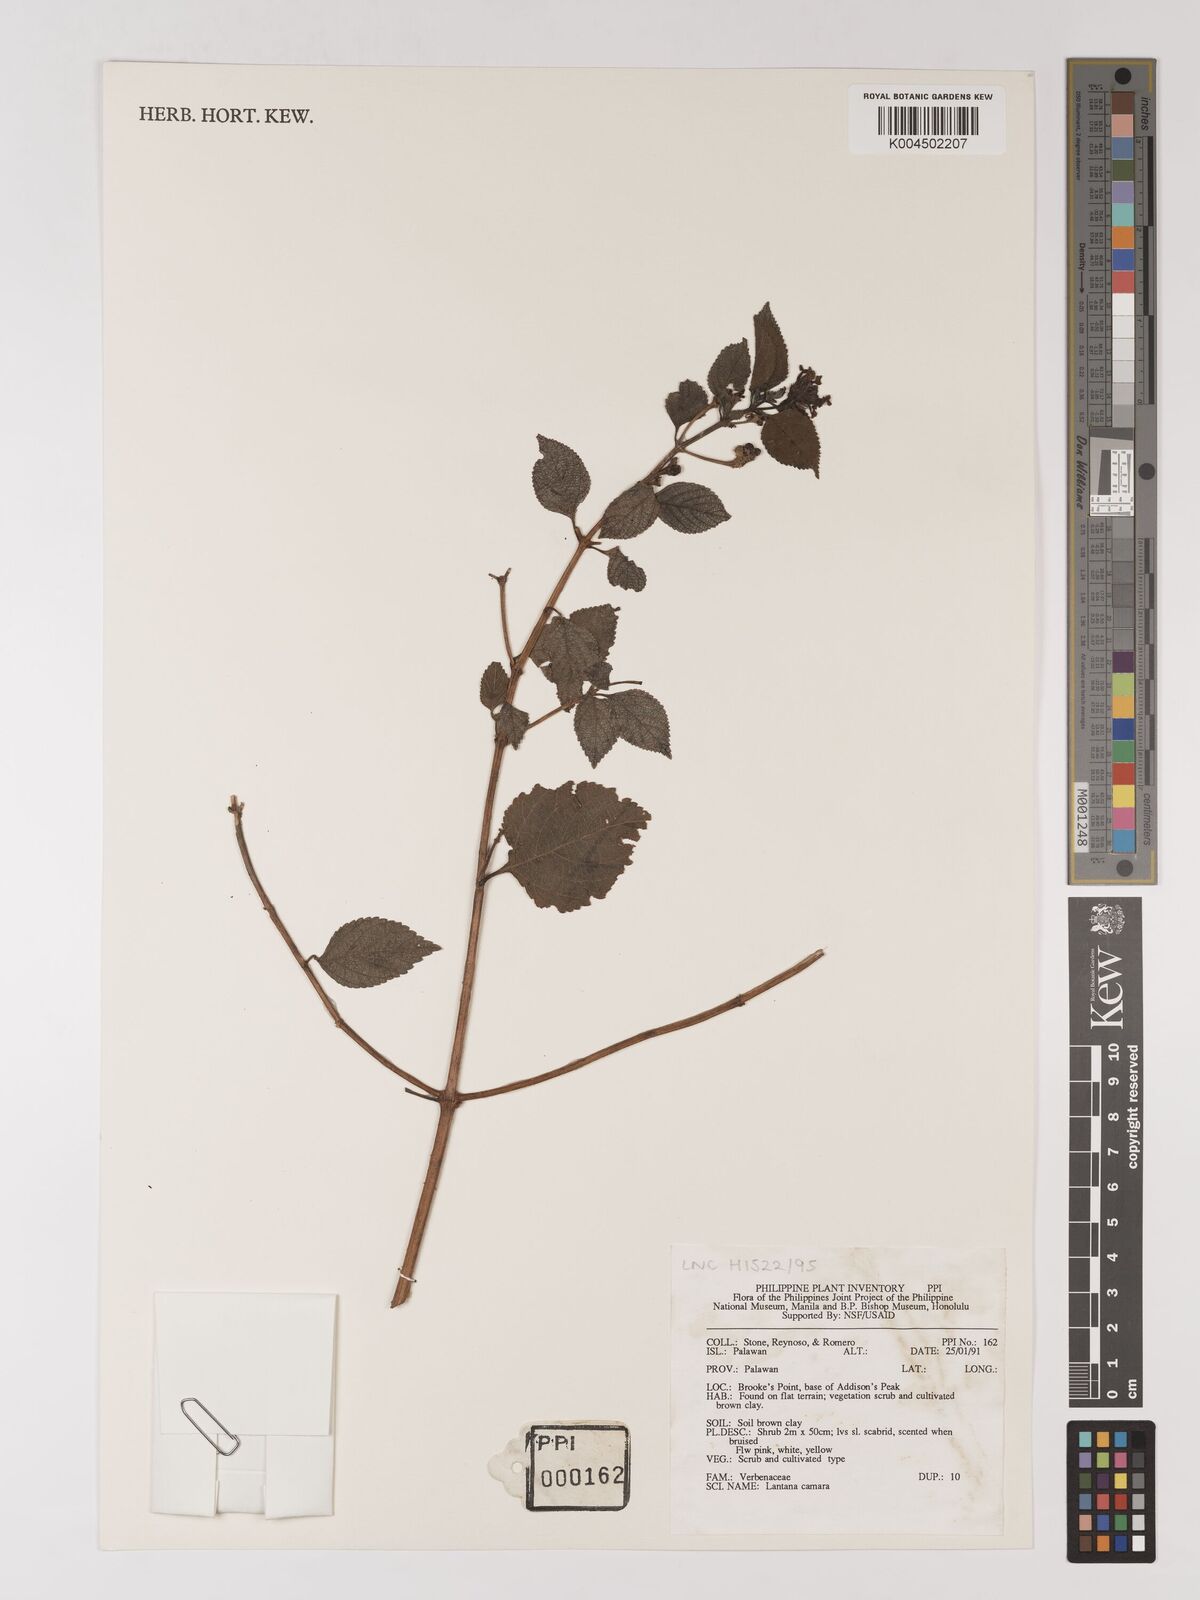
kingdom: Plantae
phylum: Tracheophyta
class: Magnoliopsida
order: Lamiales
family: Verbenaceae
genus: Lantana
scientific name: Lantana
